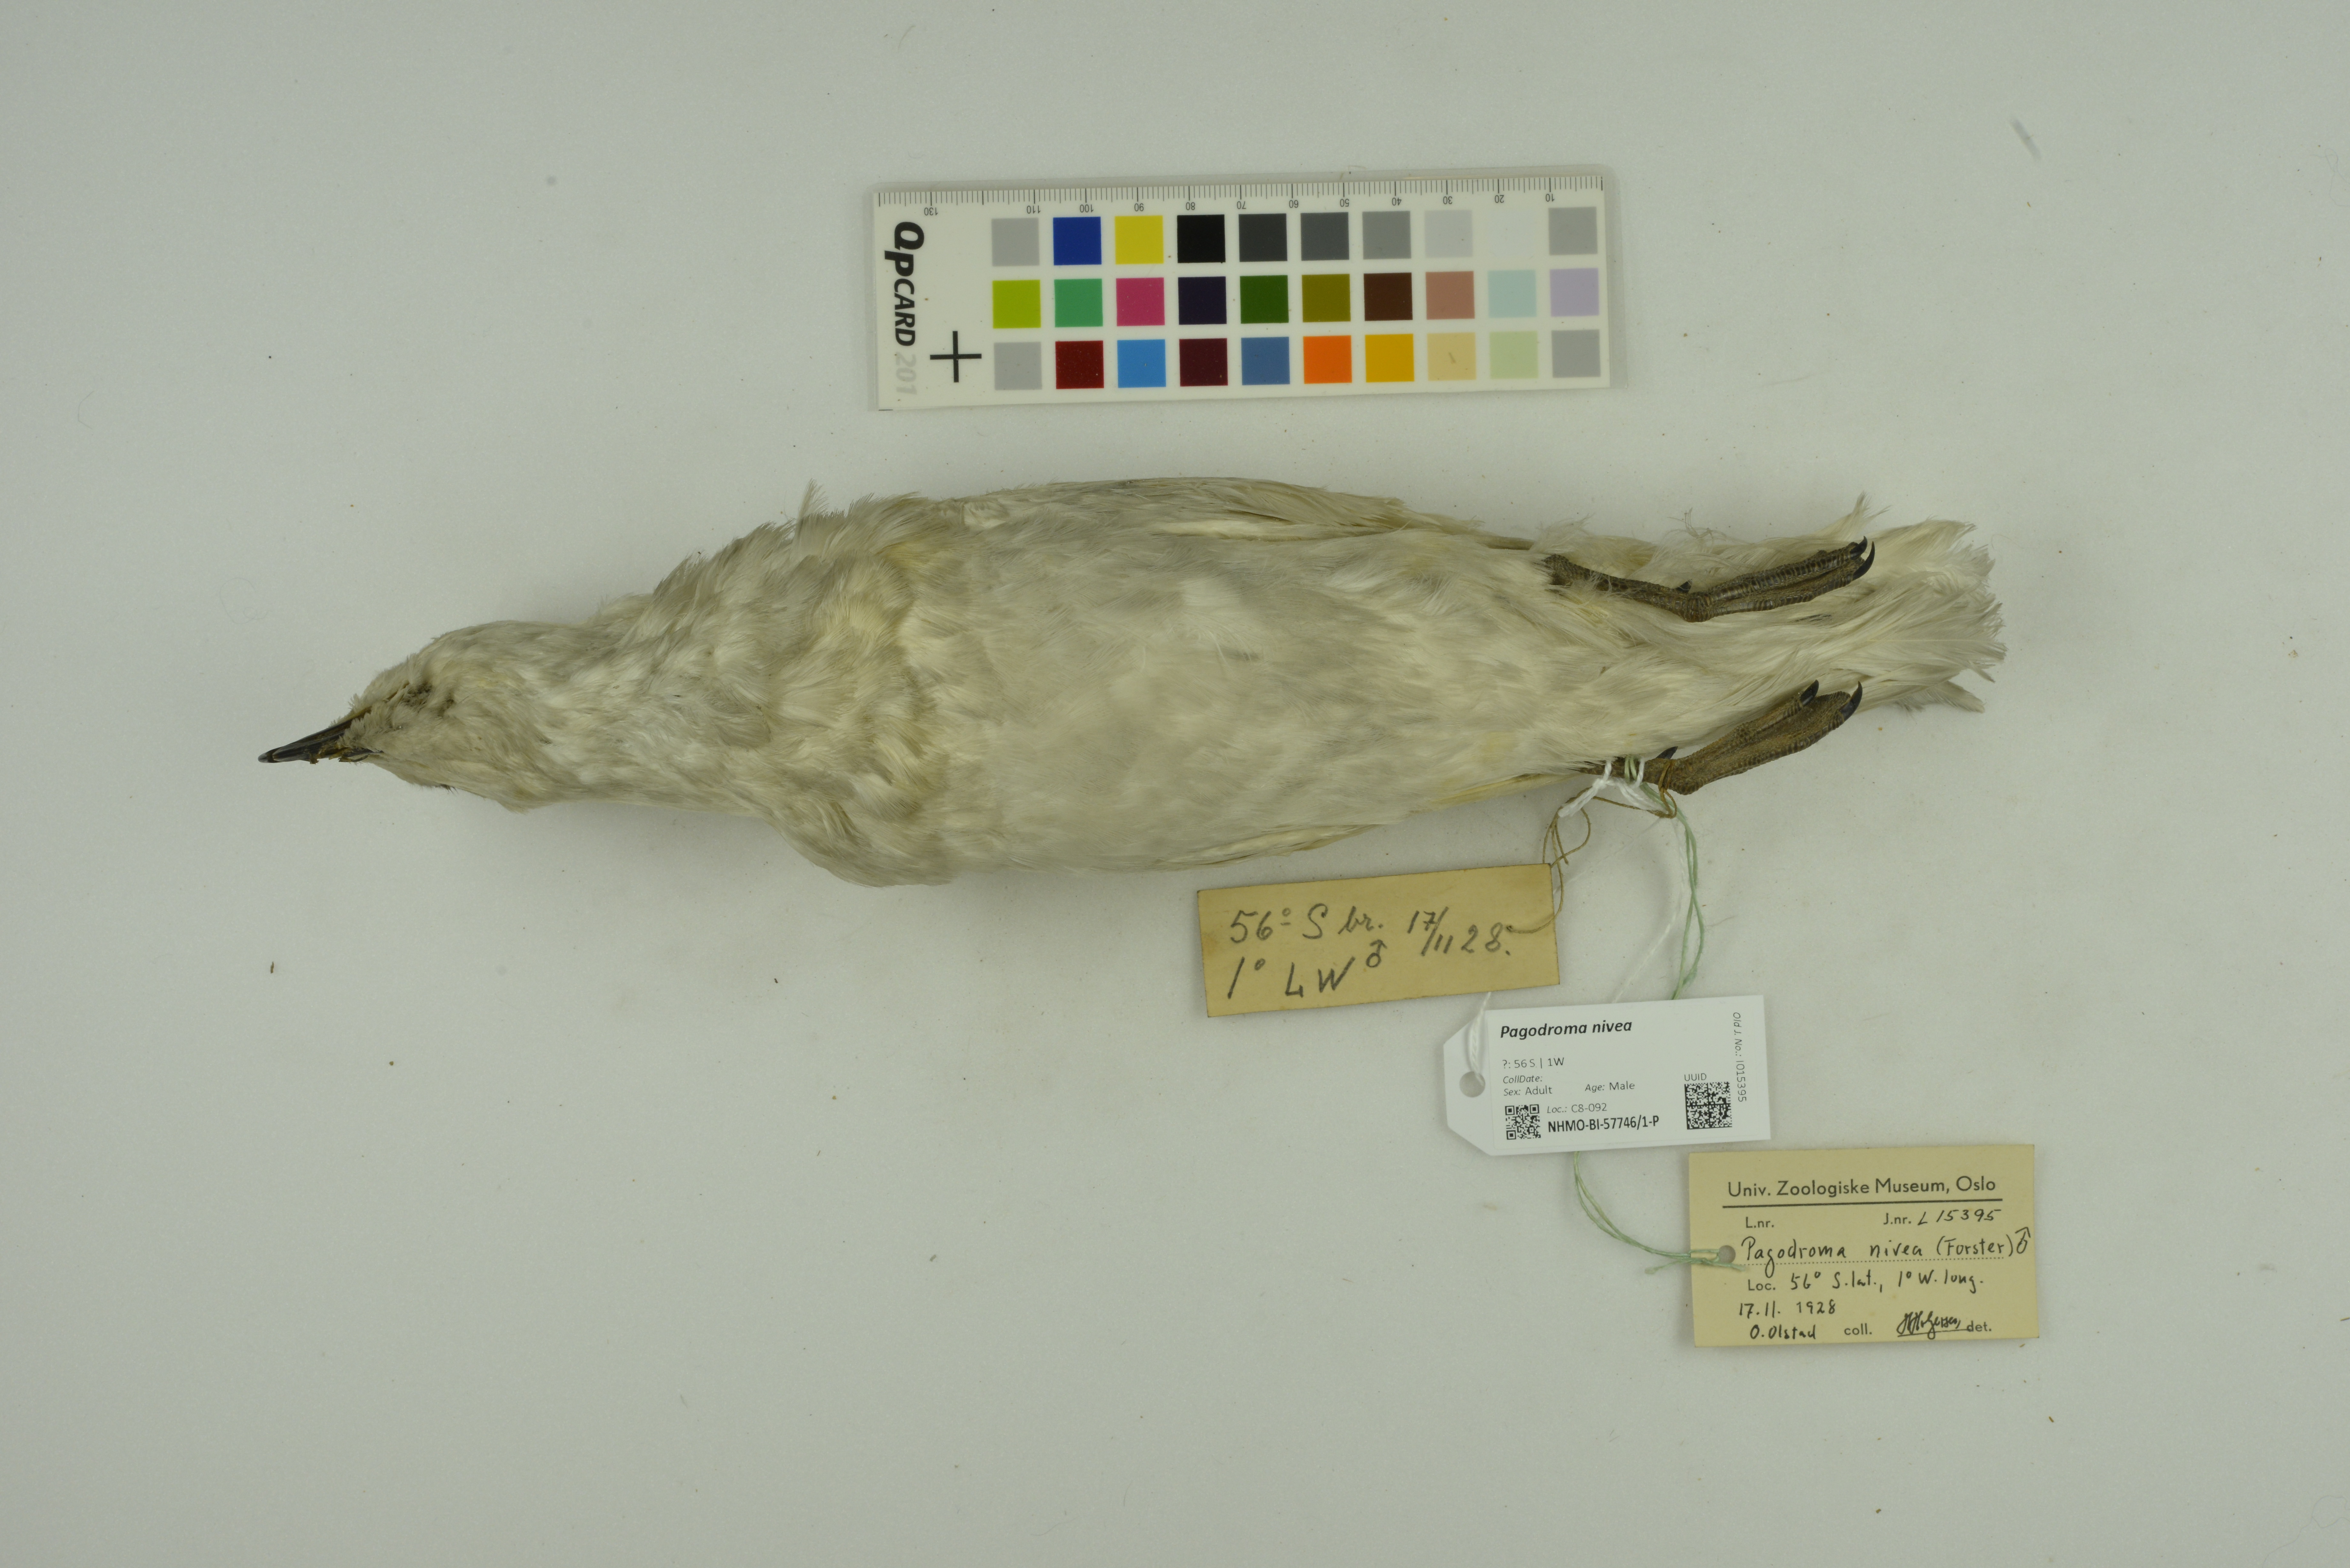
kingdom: Animalia
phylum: Chordata
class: Aves
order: Procellariiformes
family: Procellariidae
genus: Pagodroma
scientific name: Pagodroma nivea
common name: Snow petrel
